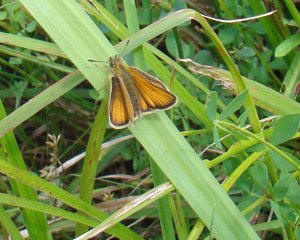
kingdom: Animalia
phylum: Arthropoda
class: Insecta
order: Lepidoptera
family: Hesperiidae
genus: Thymelicus
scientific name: Thymelicus lineola
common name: European Skipper
